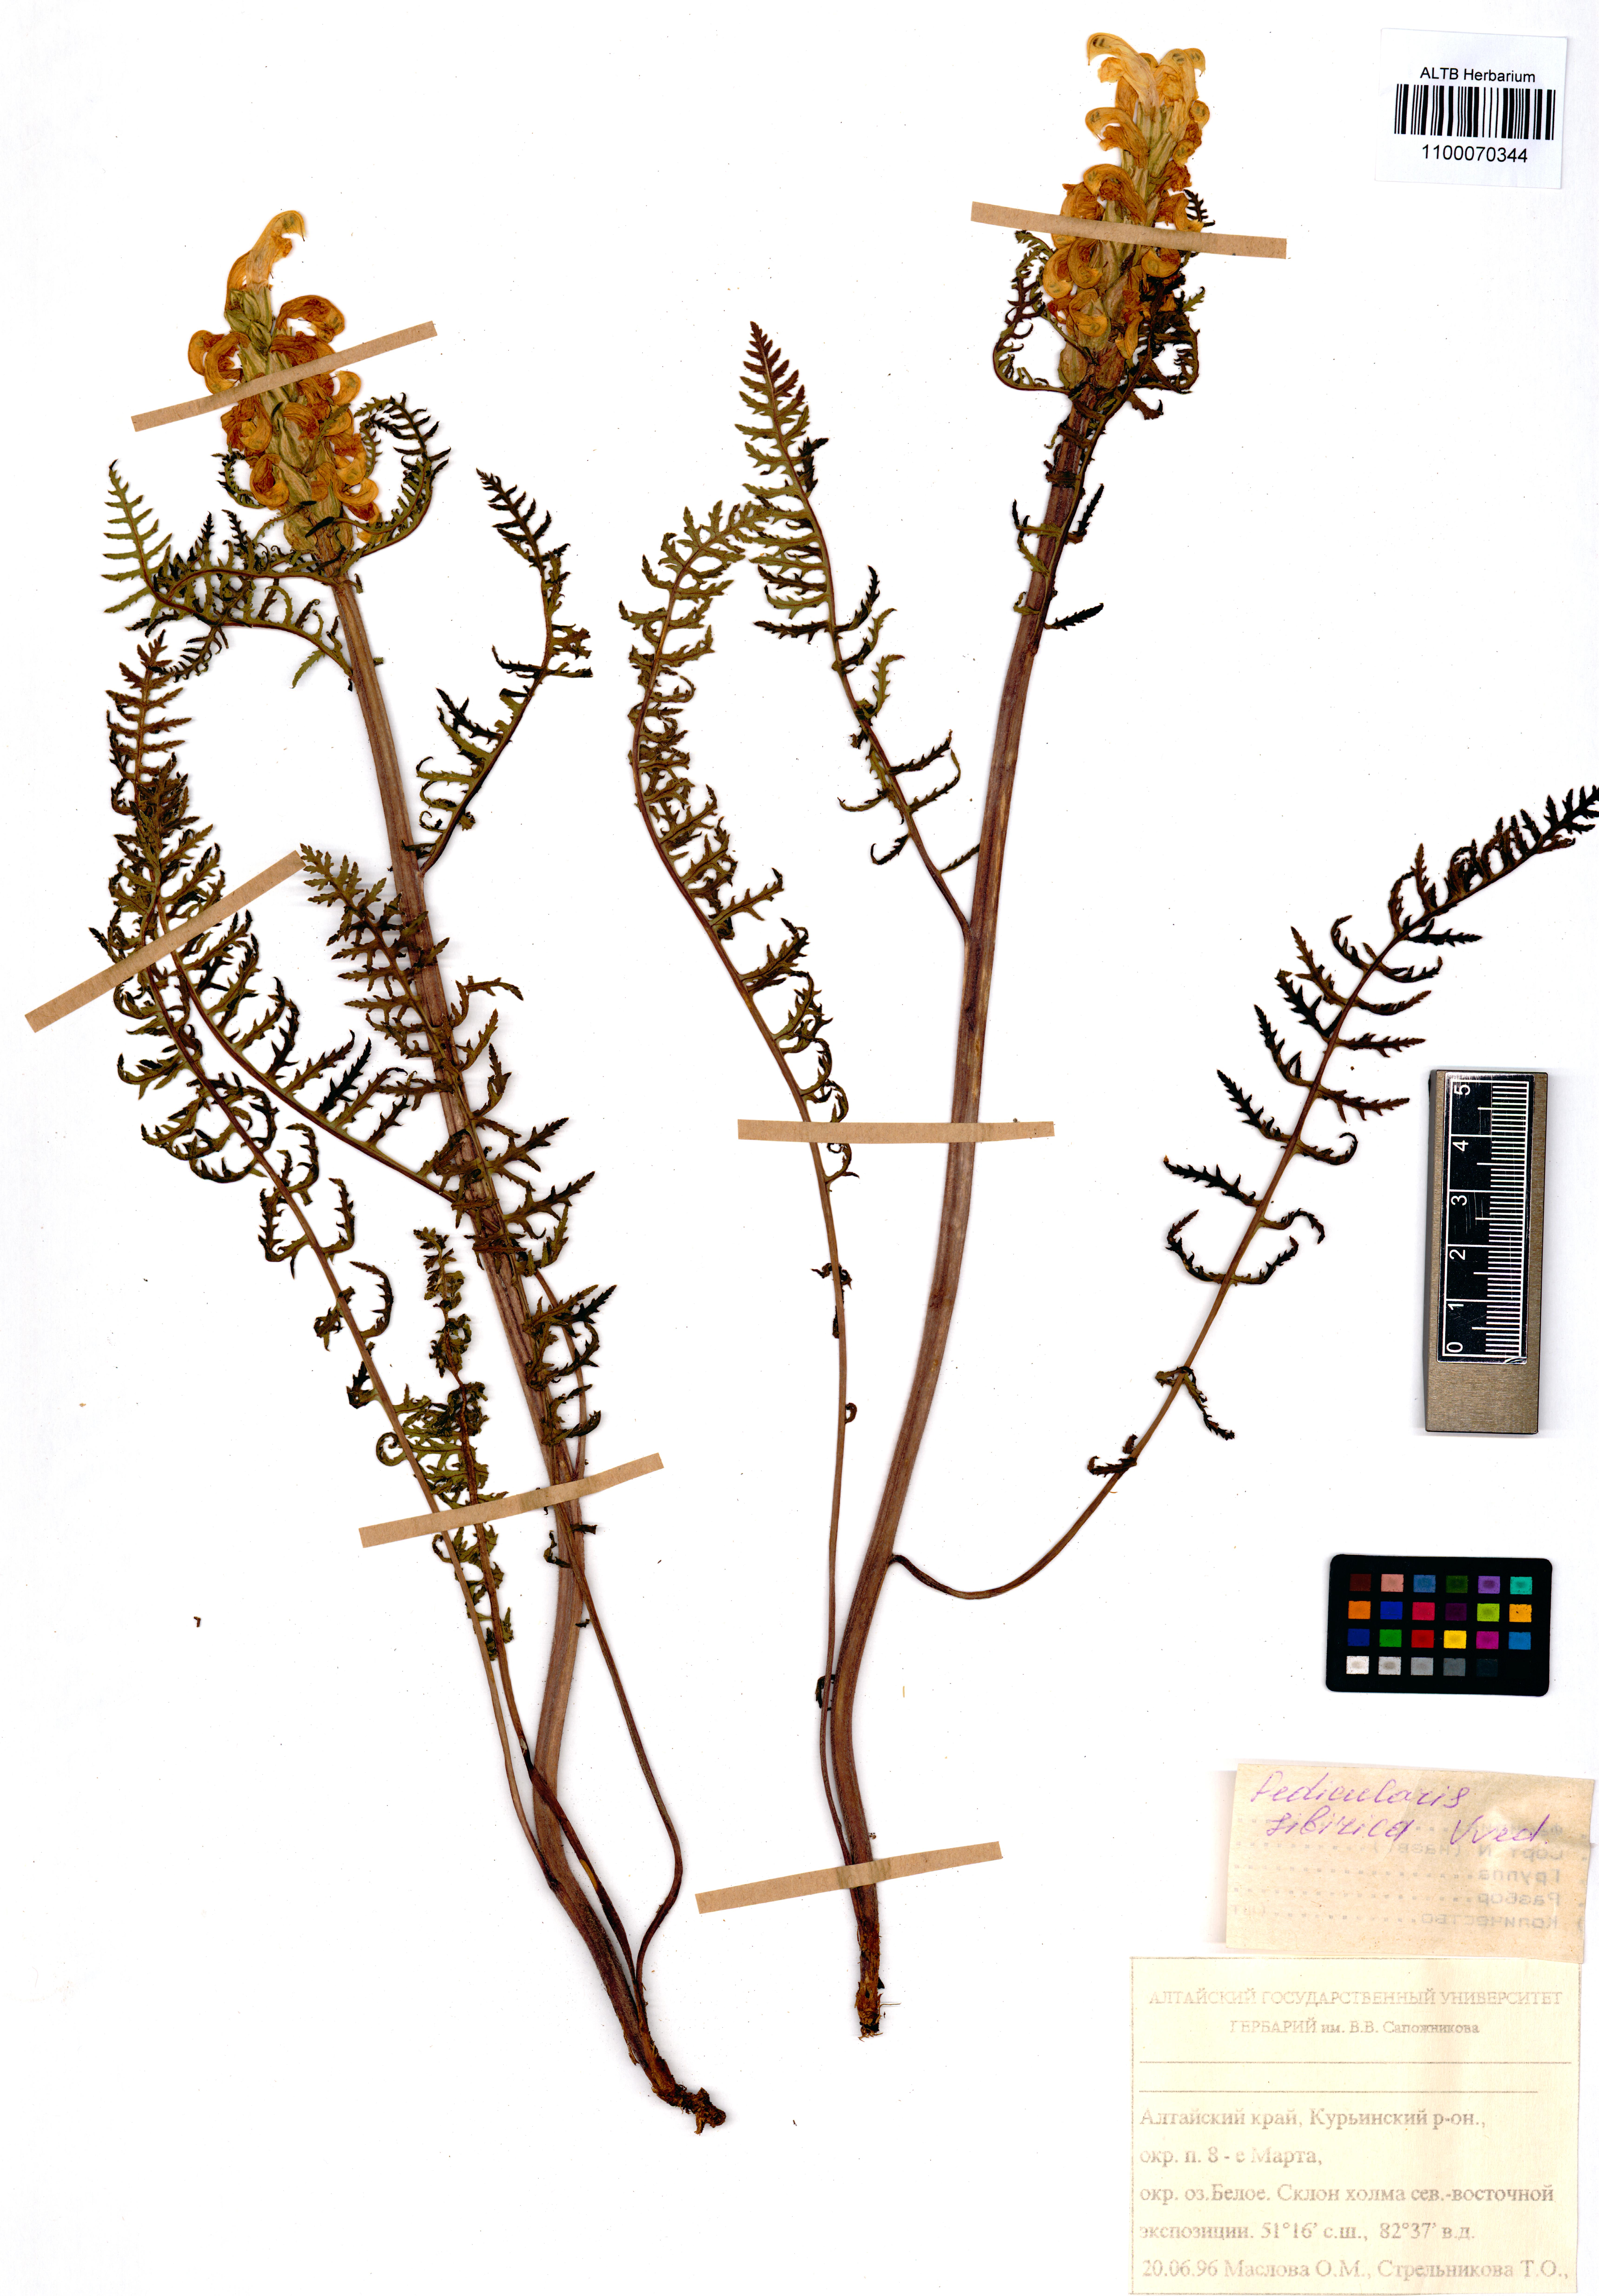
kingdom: Plantae
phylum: Tracheophyta
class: Magnoliopsida
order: Lamiales
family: Orobanchaceae
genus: Pedicularis
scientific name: Pedicularis sibirica
